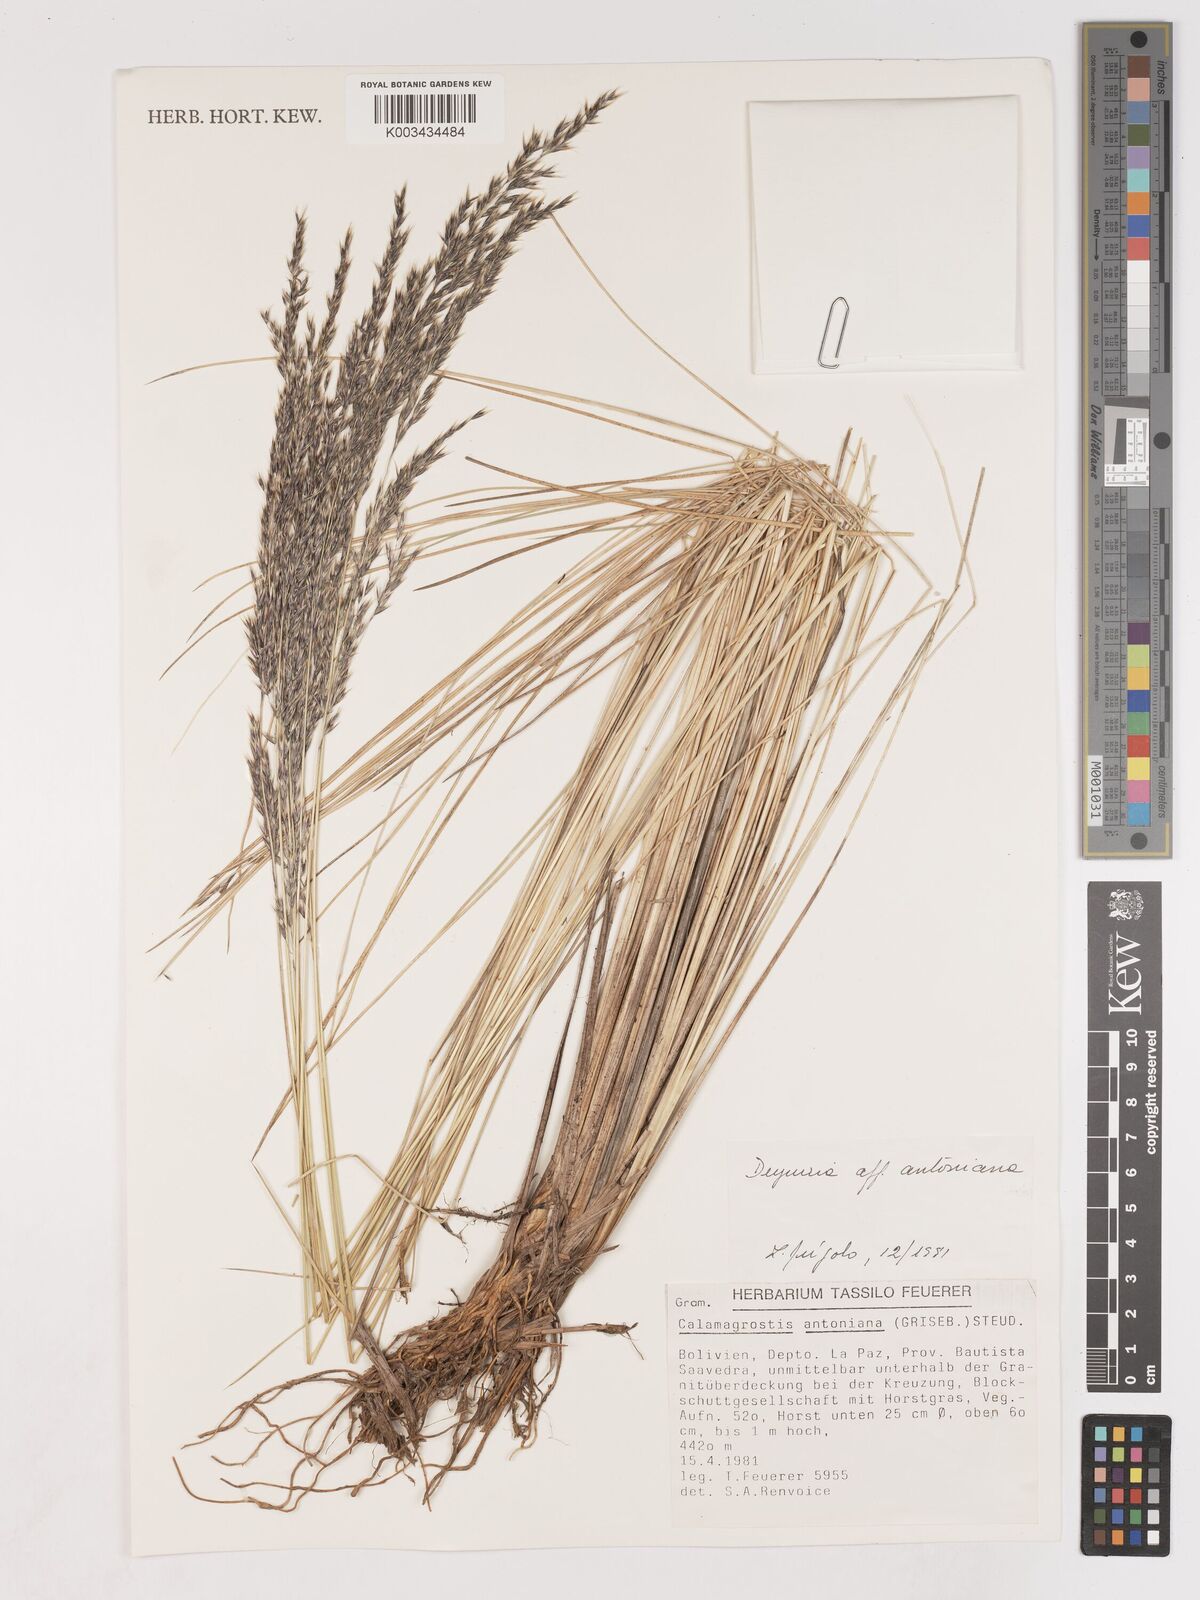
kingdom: Plantae
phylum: Tracheophyta
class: Liliopsida
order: Poales
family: Poaceae
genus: Cinnagrostis
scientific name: Cinnagrostis rigida
